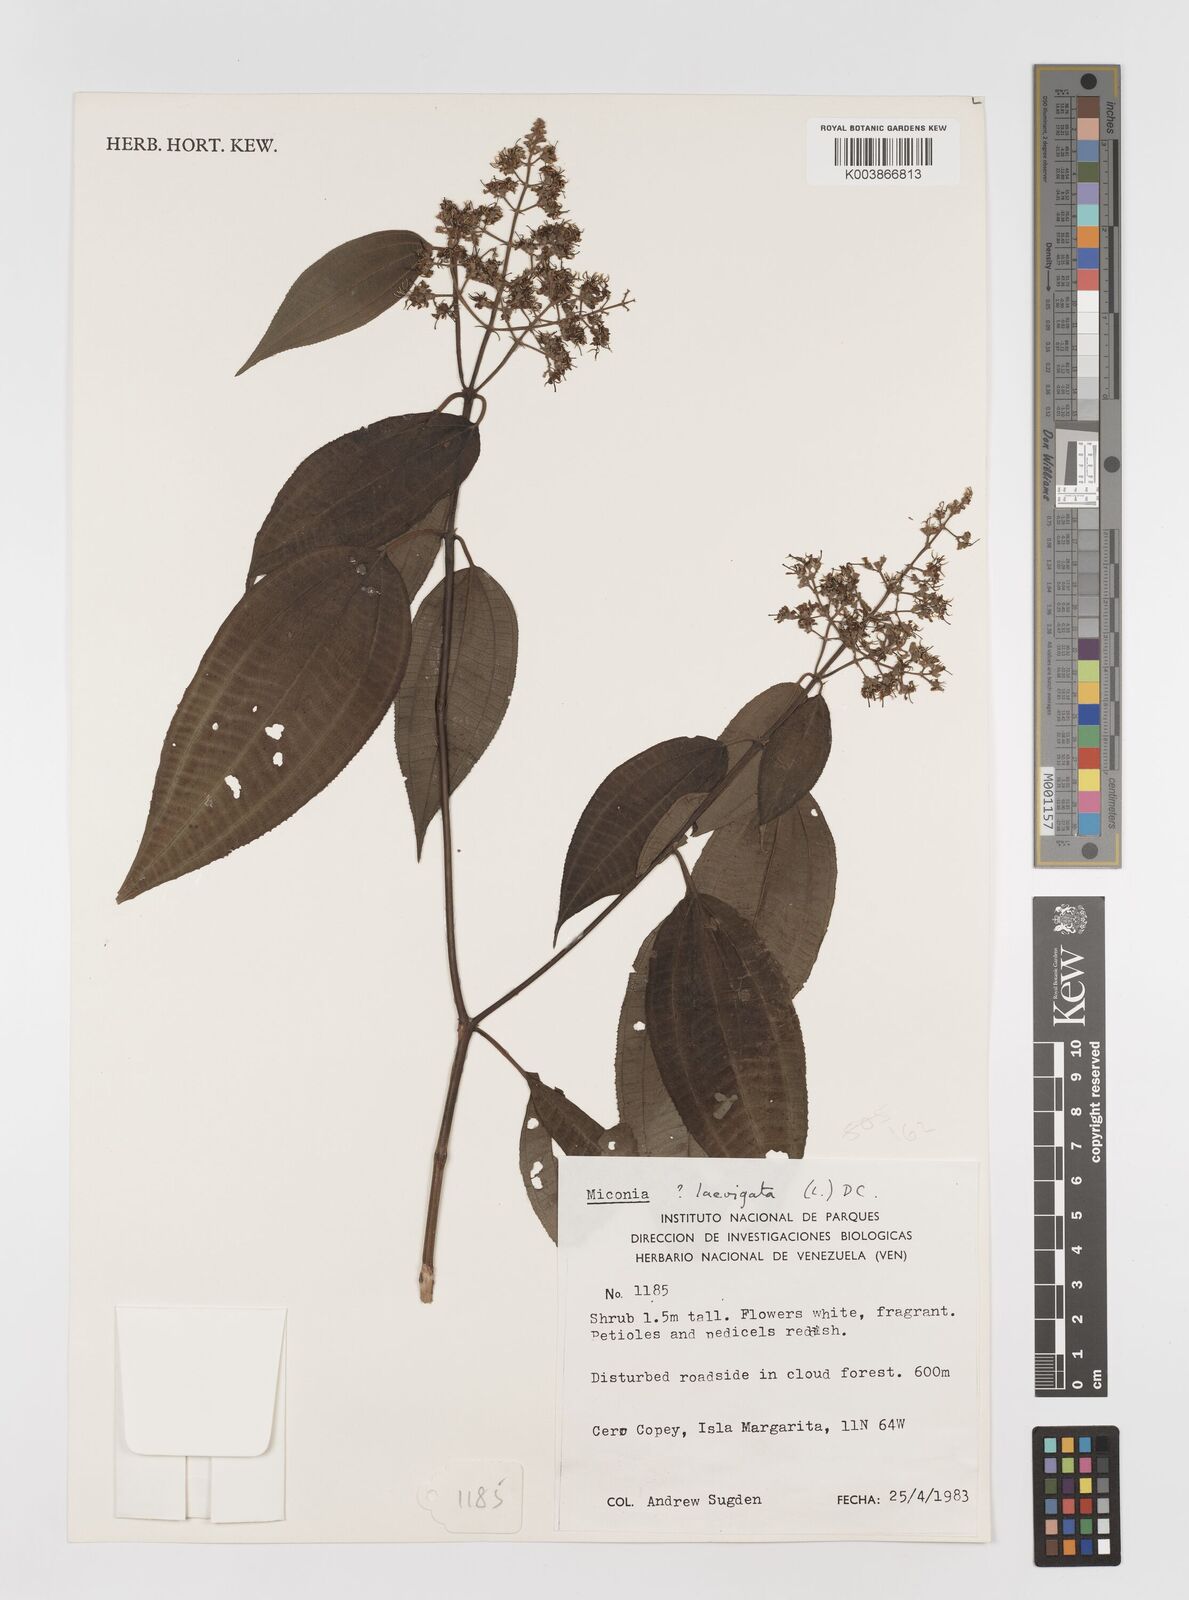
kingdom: Plantae
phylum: Tracheophyta
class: Magnoliopsida
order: Myrtales
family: Melastomataceae
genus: Miconia
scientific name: Miconia laevigata
